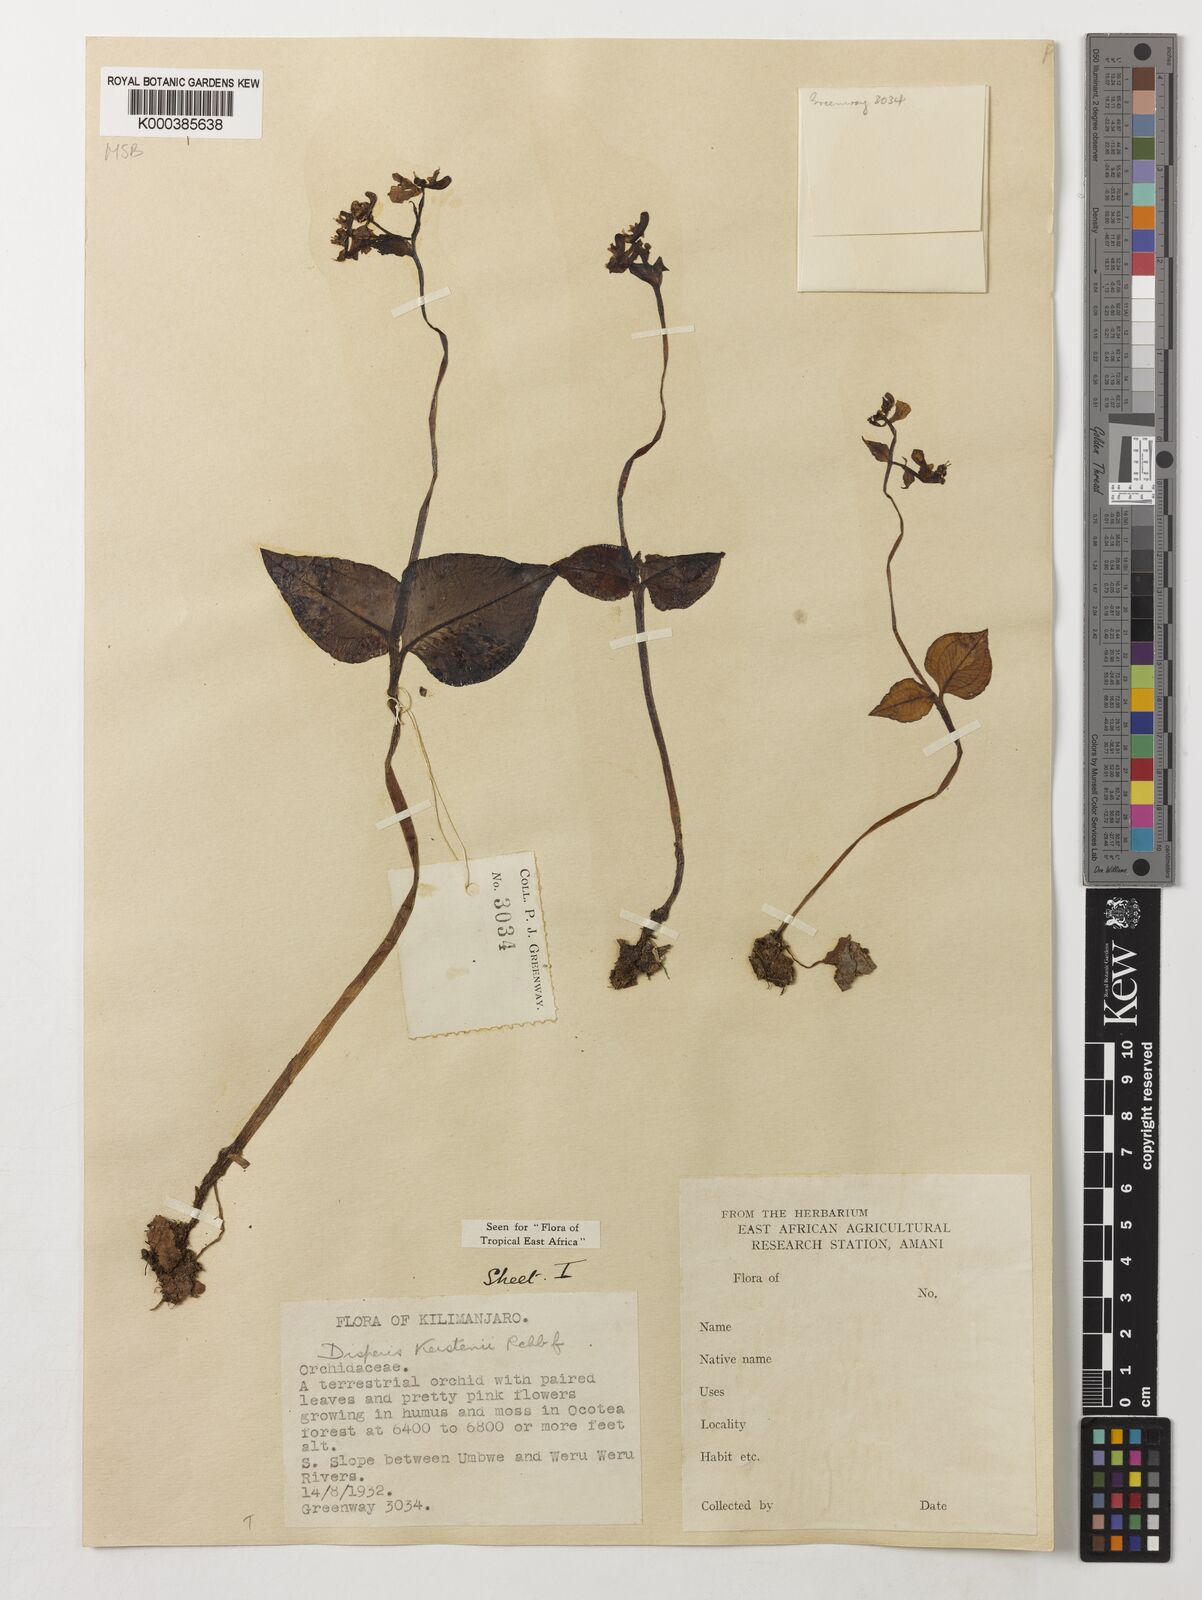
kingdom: Plantae
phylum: Tracheophyta
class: Liliopsida
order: Asparagales
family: Orchidaceae
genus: Disperis
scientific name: Disperis kerstenii
